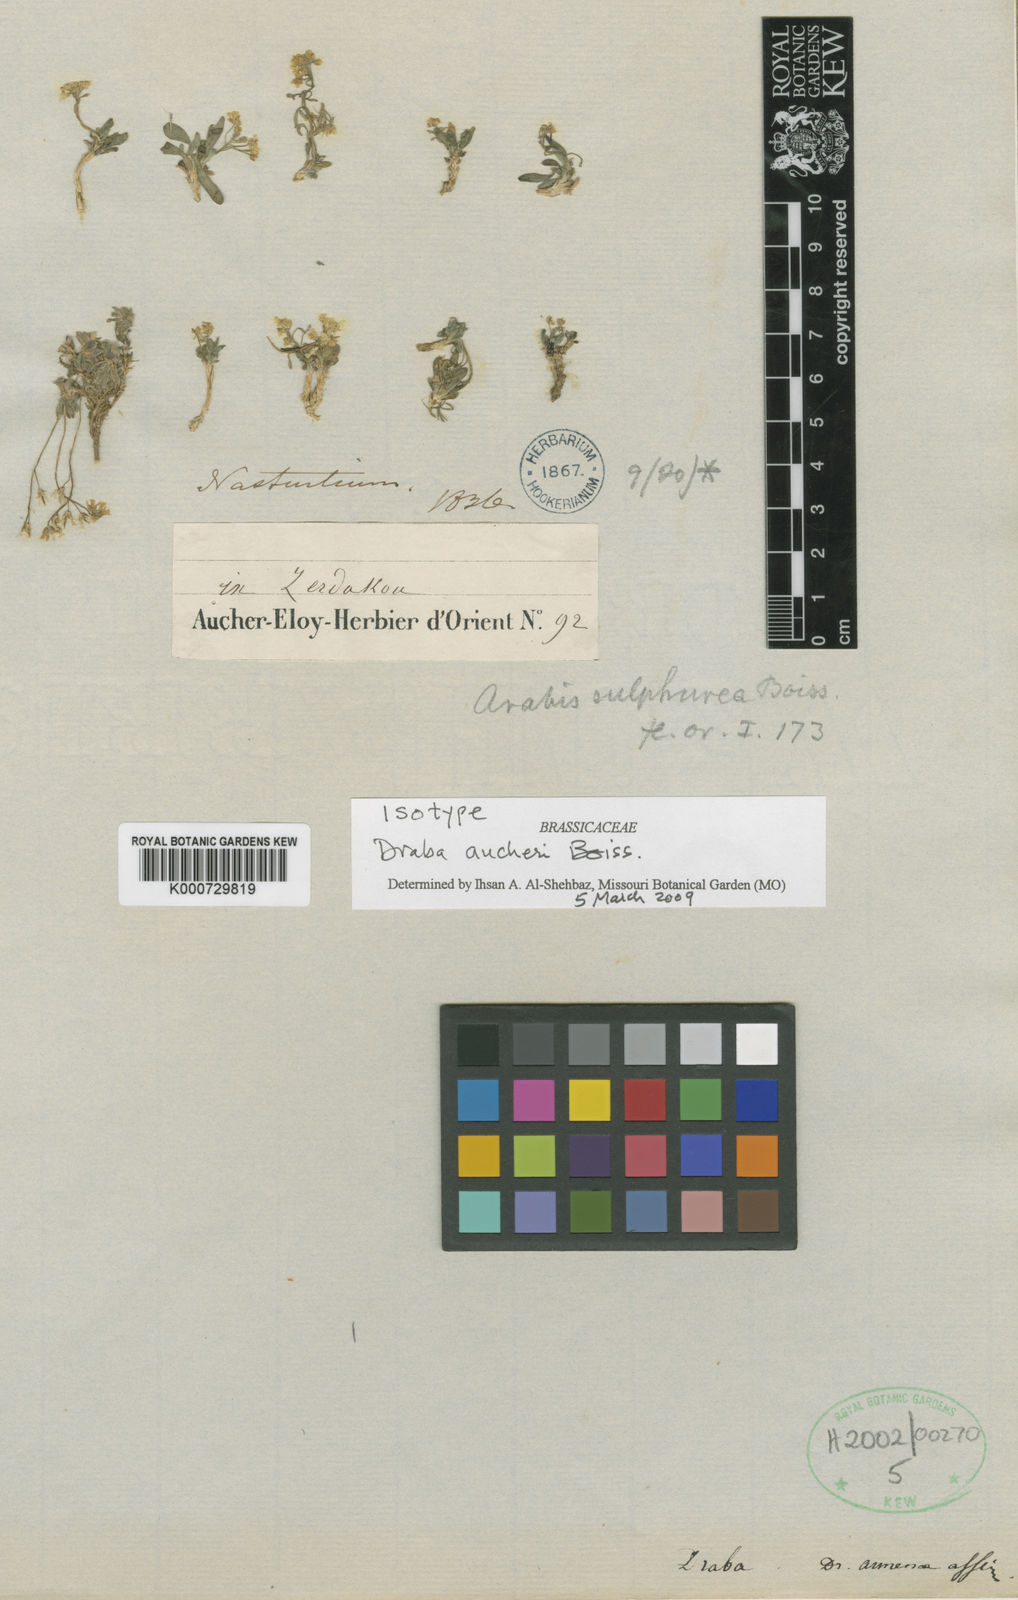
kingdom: Plantae
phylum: Tracheophyta
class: Magnoliopsida
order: Brassicales
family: Brassicaceae
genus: Draba
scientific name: Draba aucheri
